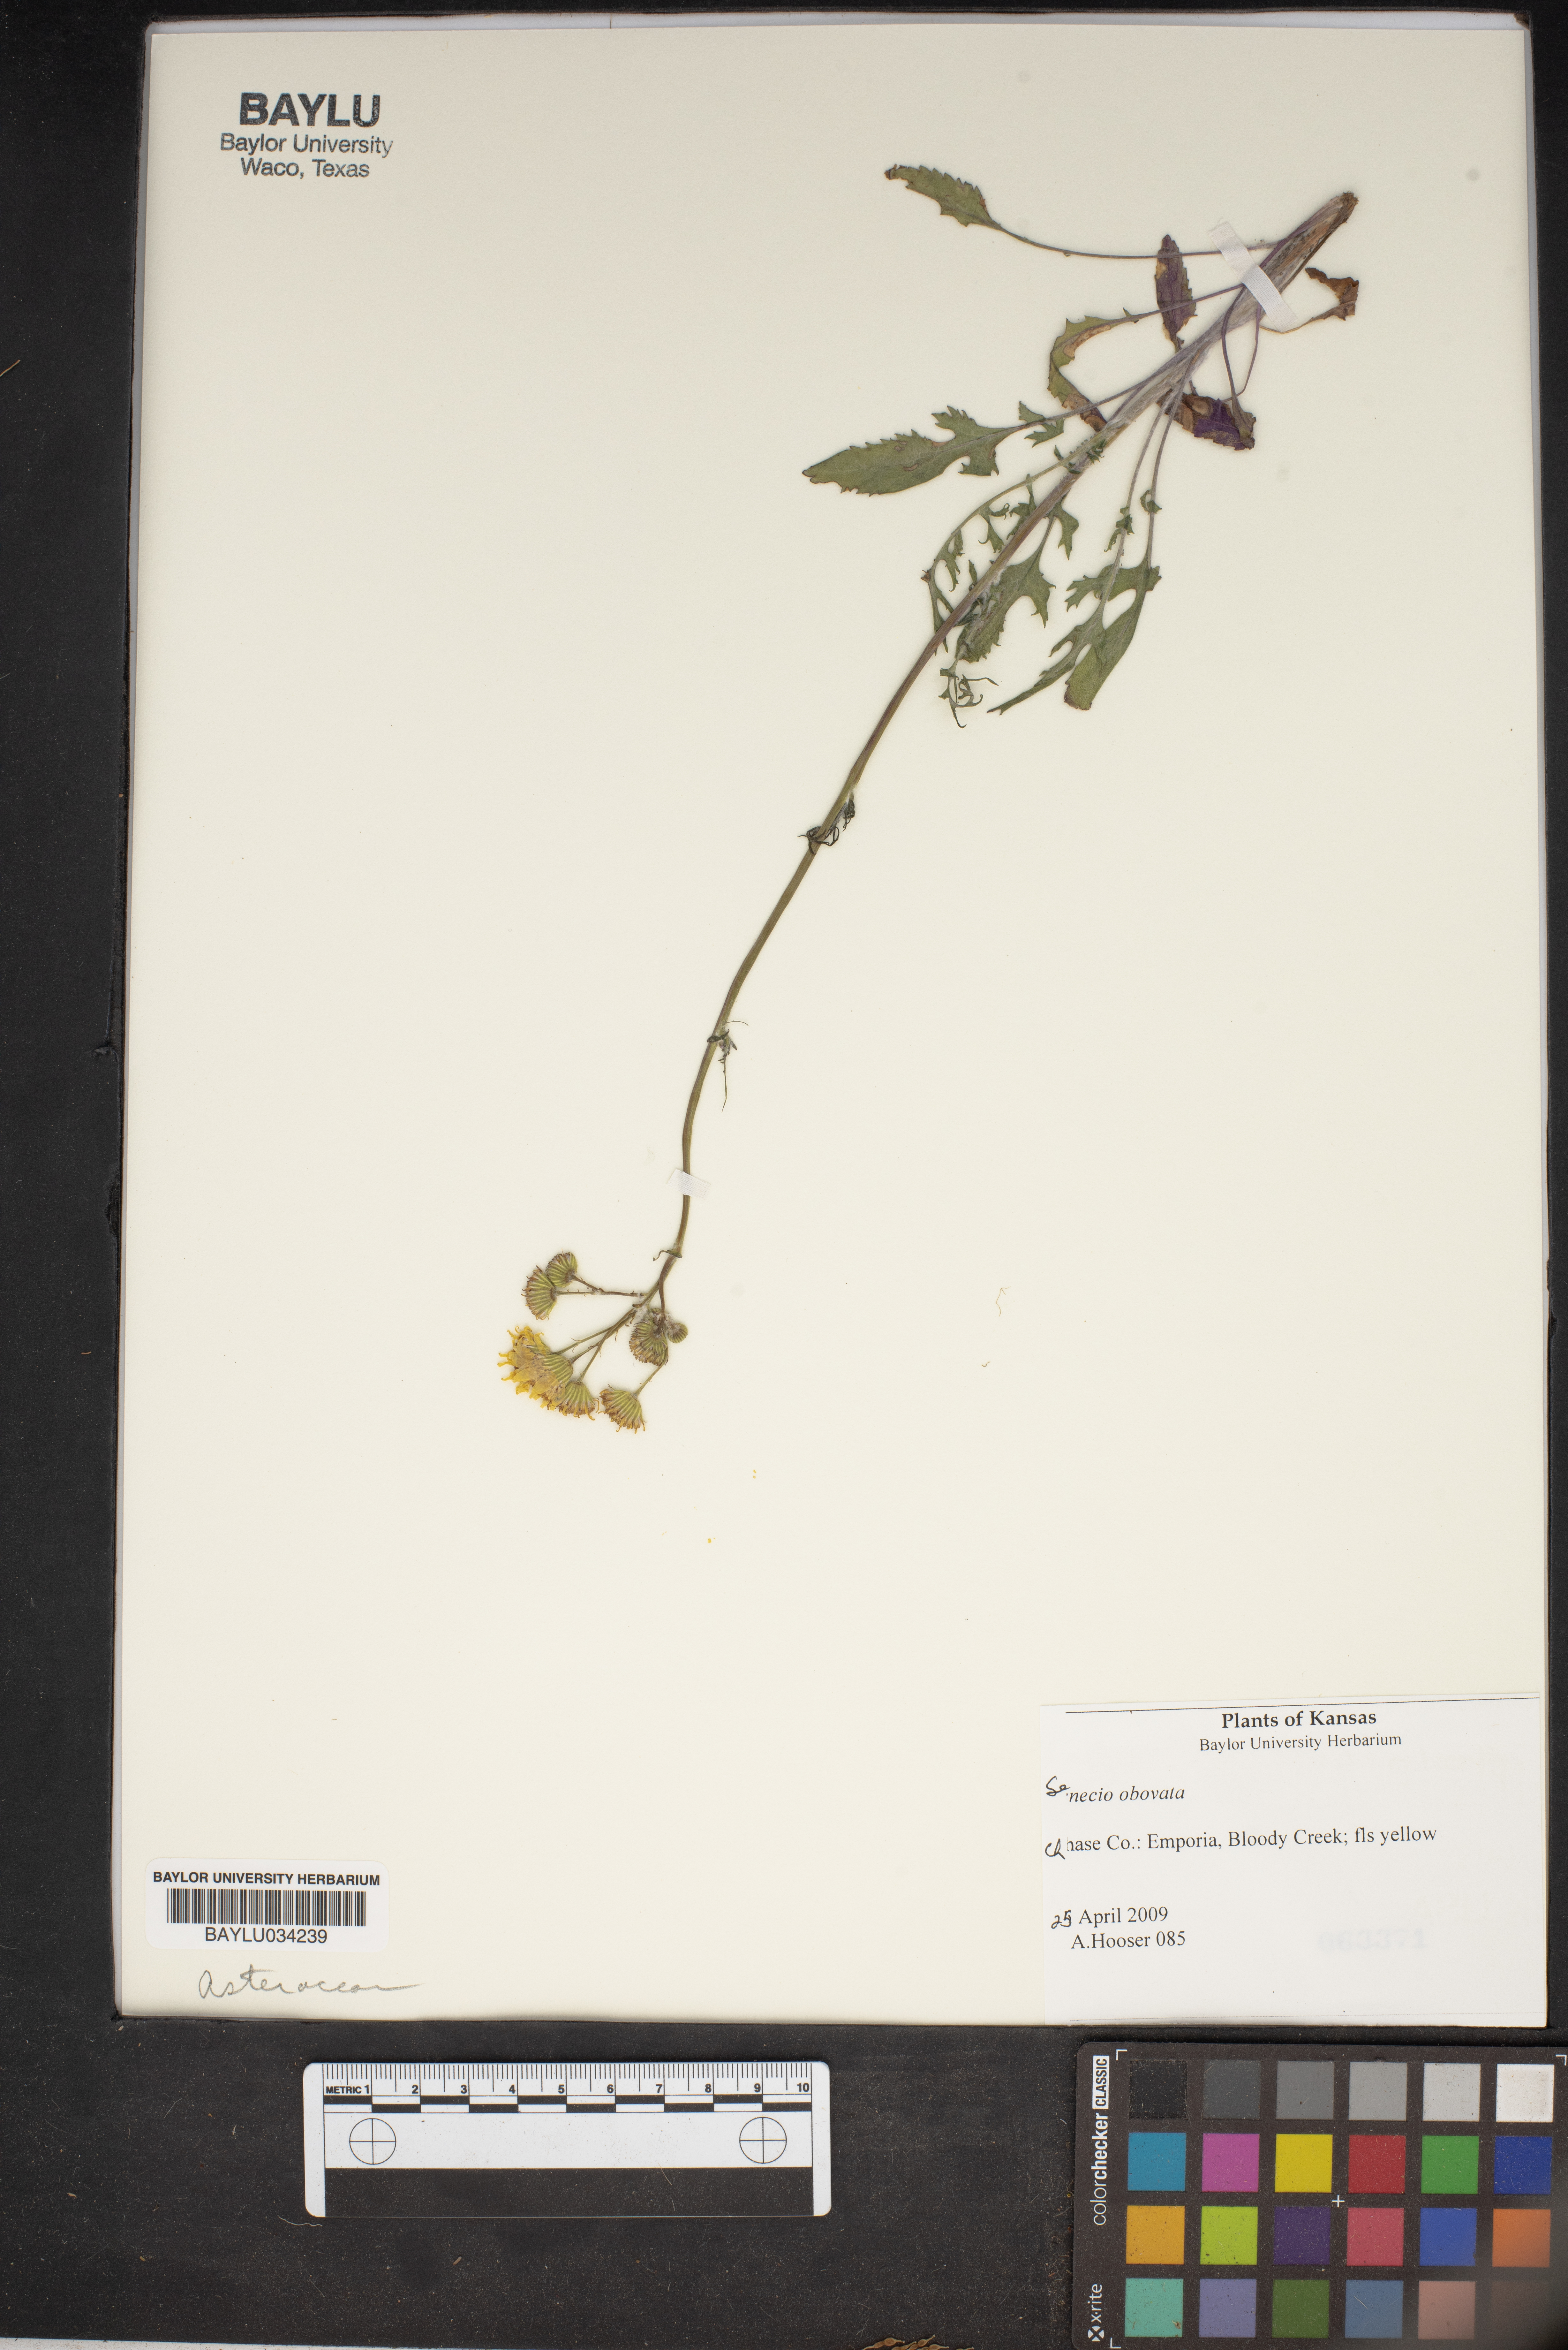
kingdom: Plantae
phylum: Tracheophyta
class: Magnoliopsida
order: Asterales
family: Asteraceae
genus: Senecio
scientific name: Senecio provincialis
